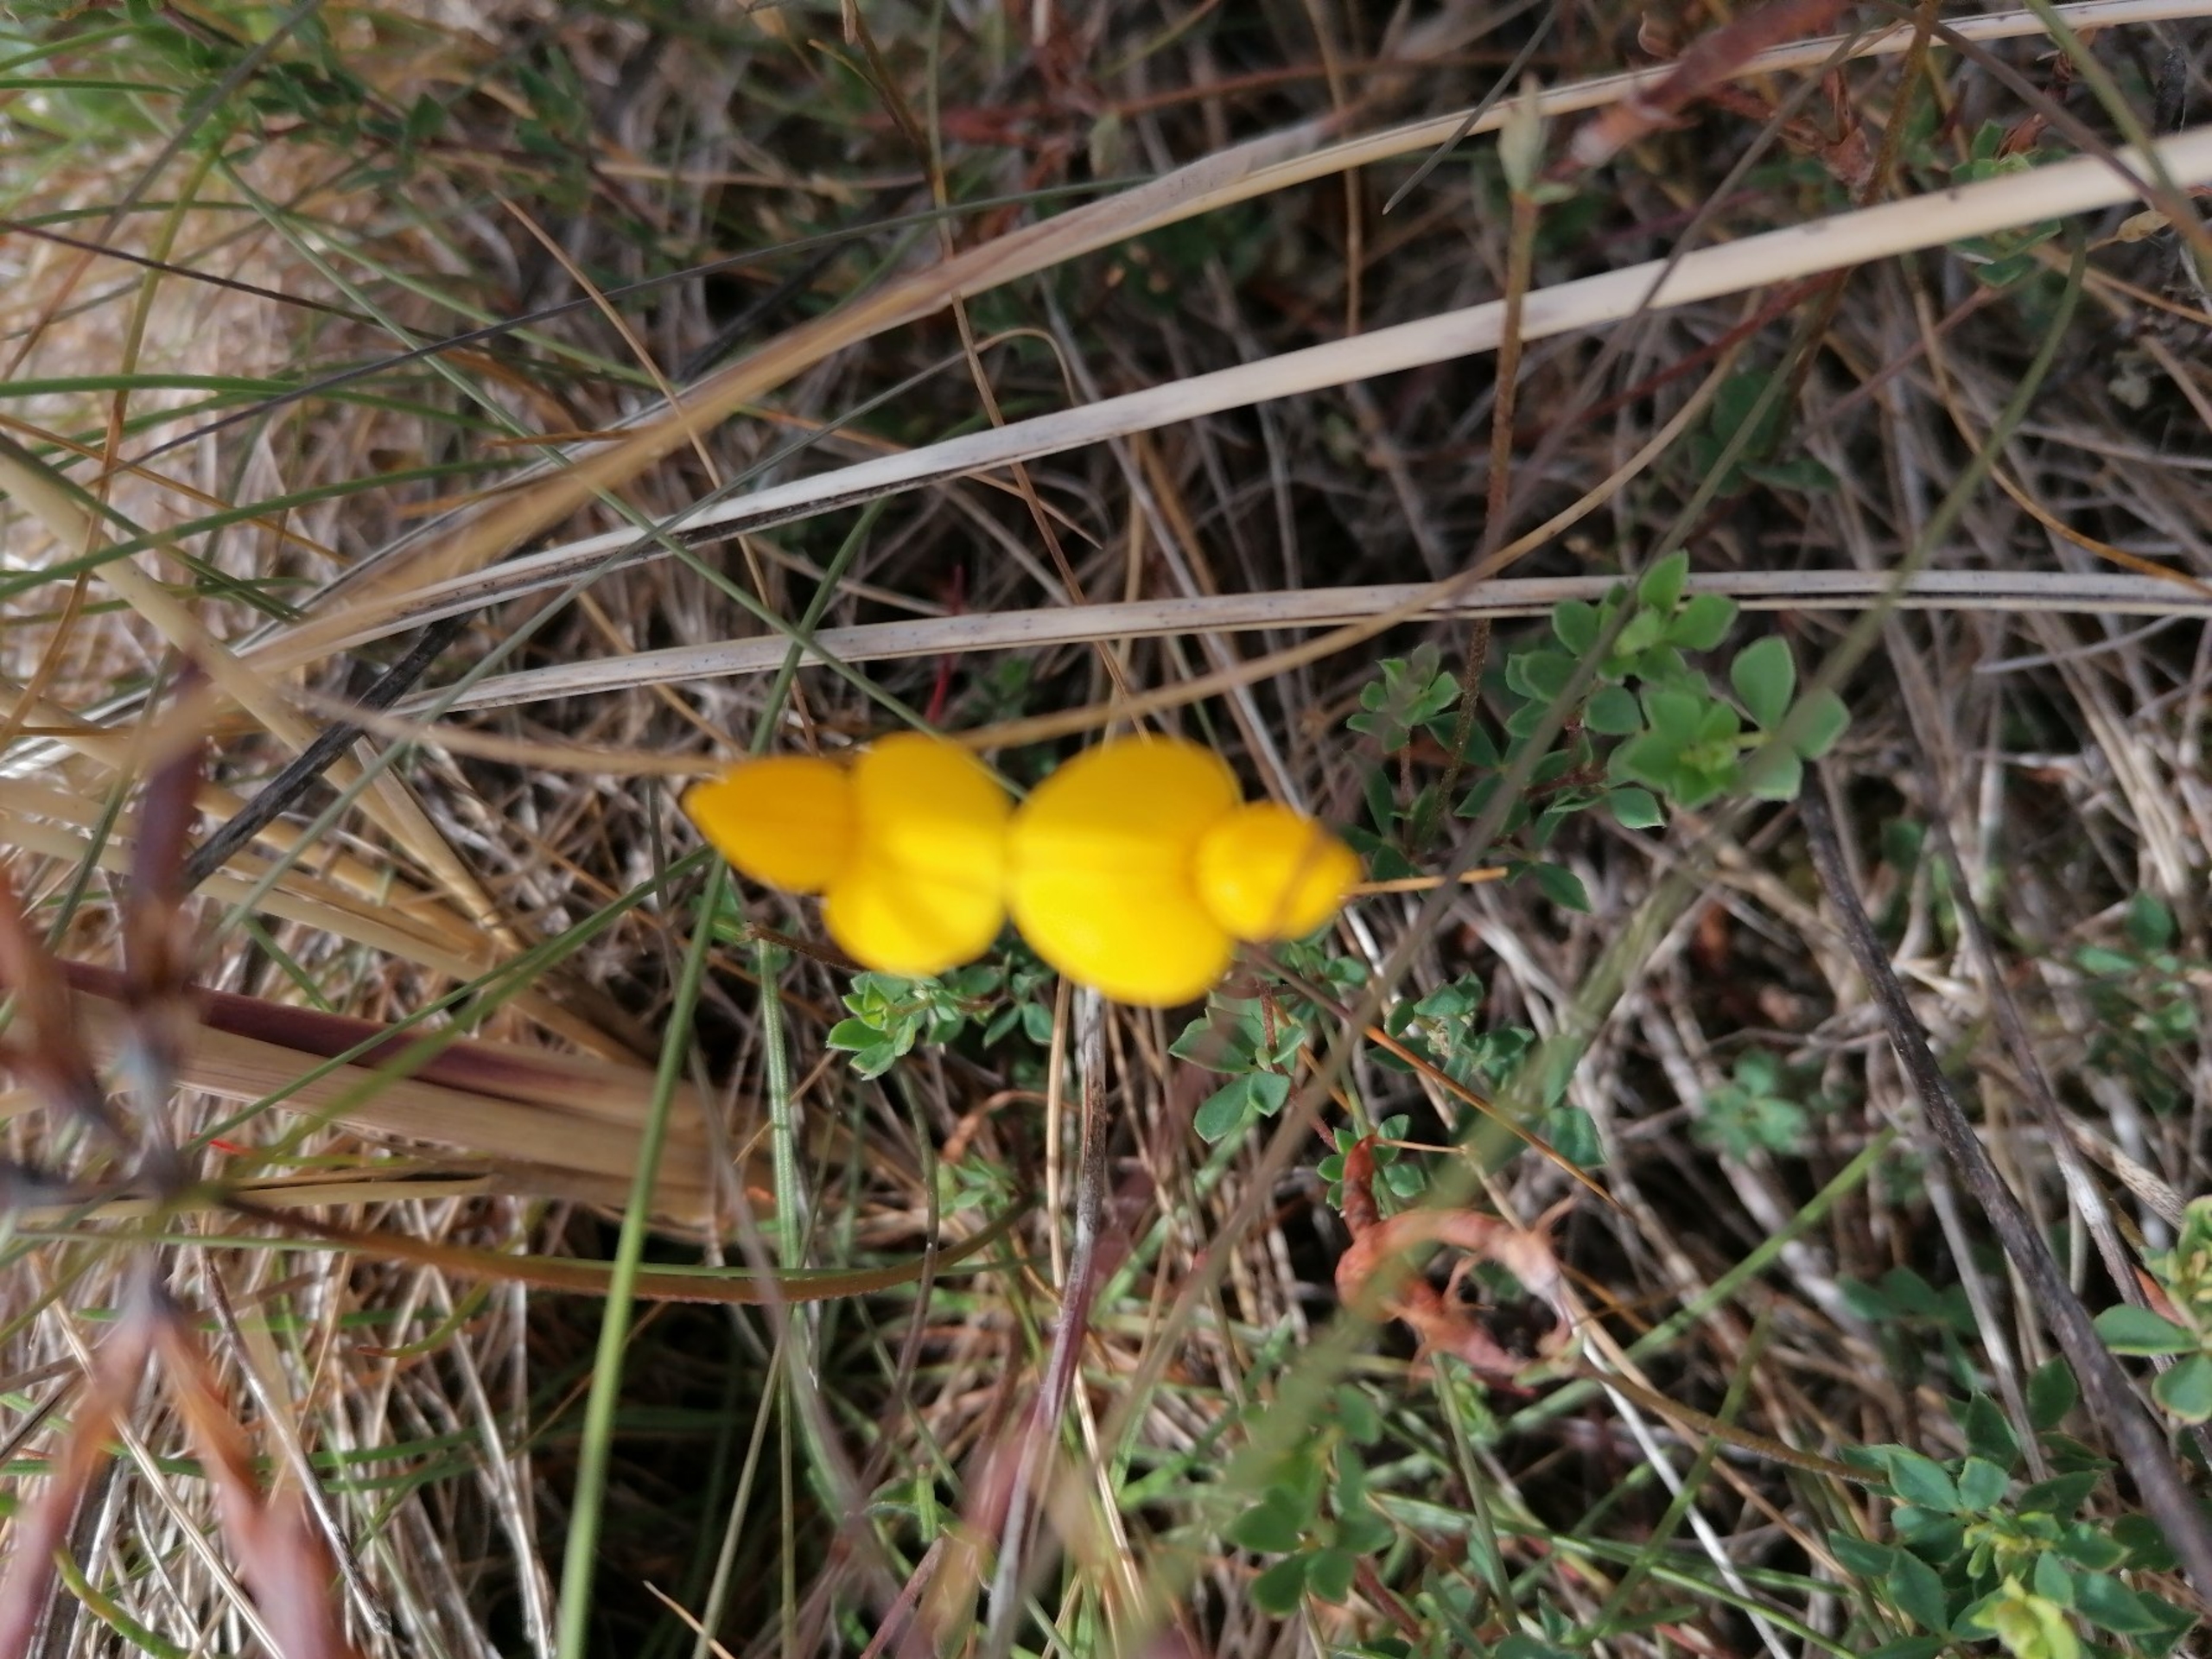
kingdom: Plantae
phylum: Tracheophyta
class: Magnoliopsida
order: Fabales
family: Fabaceae
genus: Lotus
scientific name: Lotus corniculatus
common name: Almindelig kællingetand
